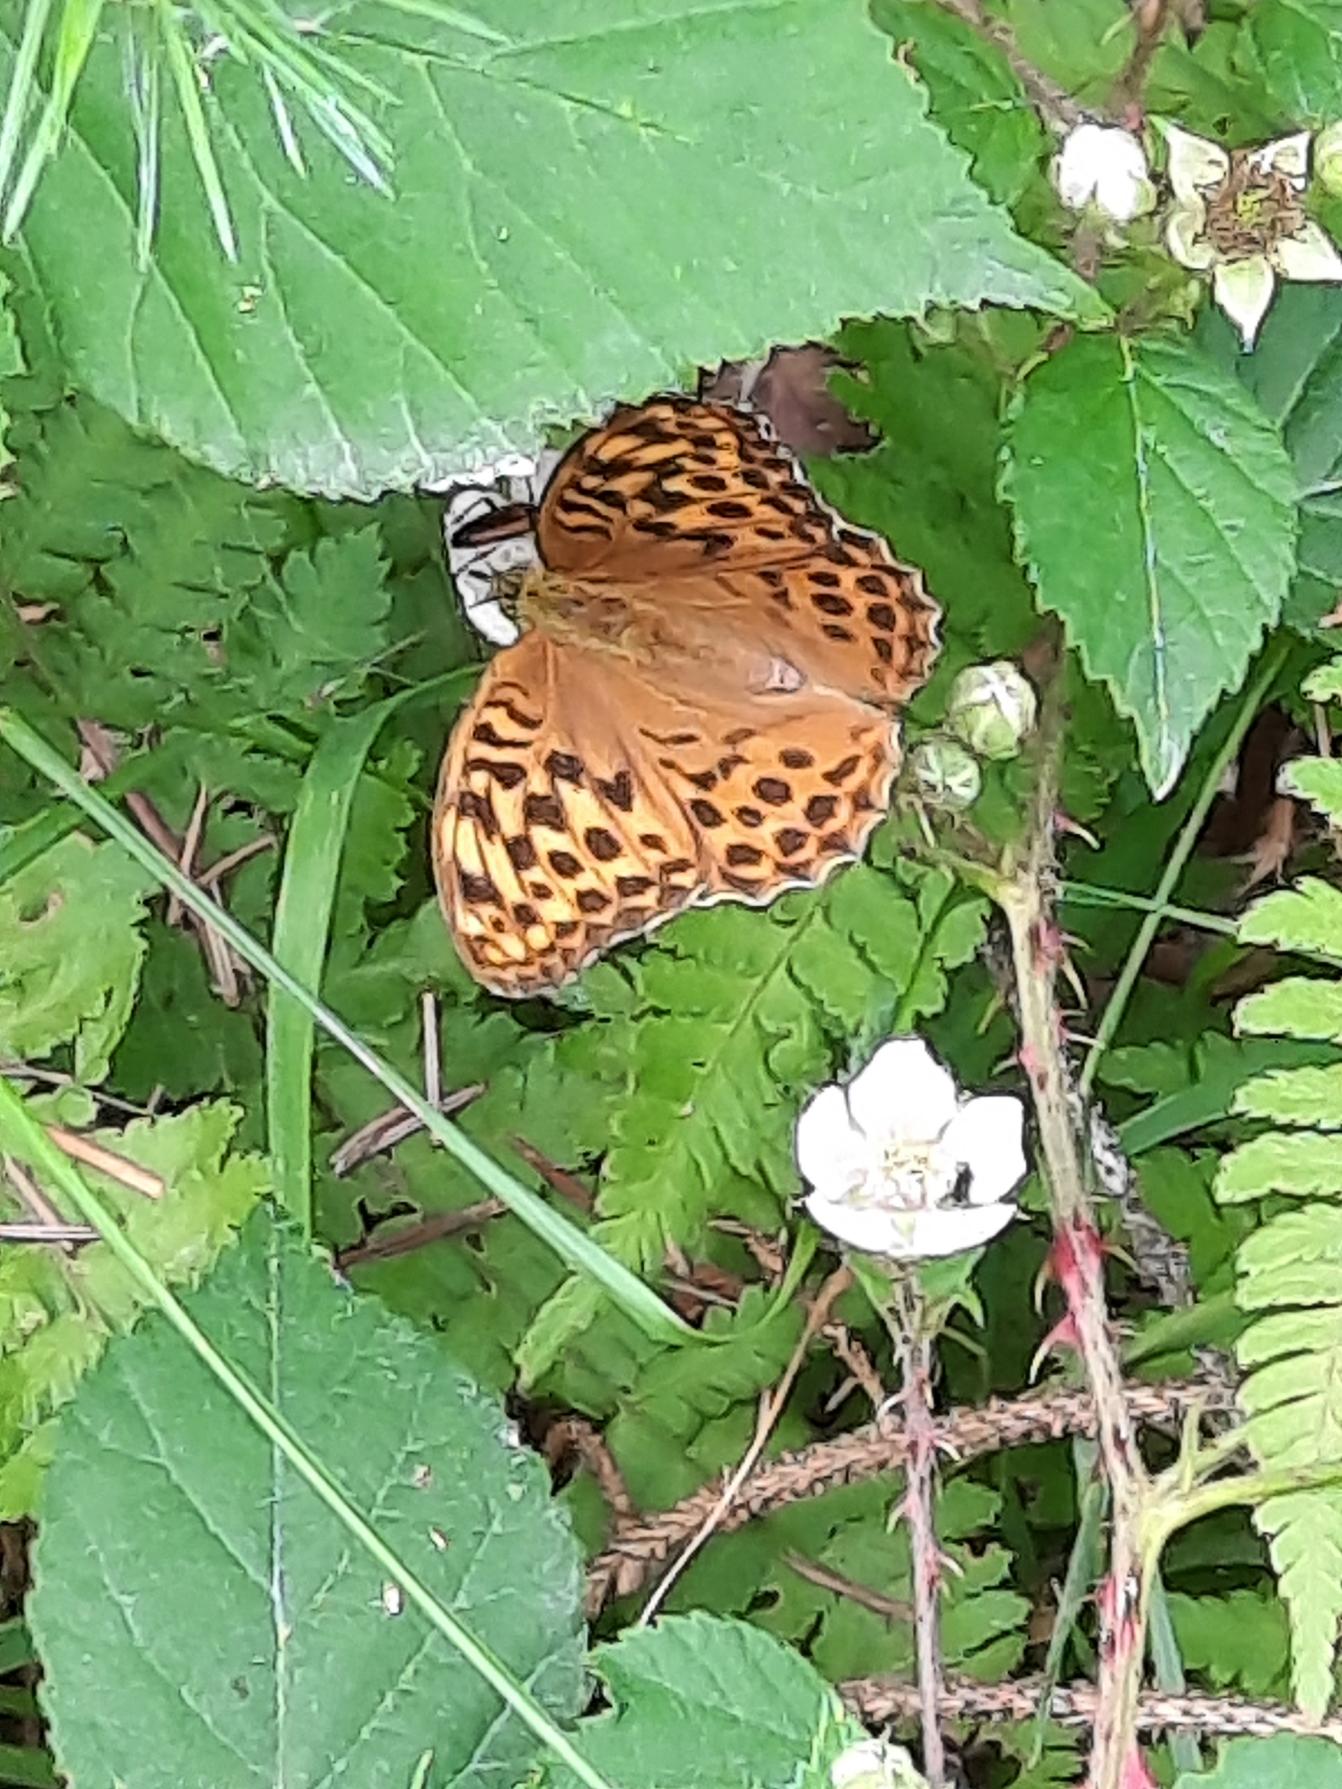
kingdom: Animalia
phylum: Arthropoda
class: Insecta
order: Lepidoptera
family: Nymphalidae
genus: Argynnis
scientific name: Argynnis paphia
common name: Kejserkåbe
